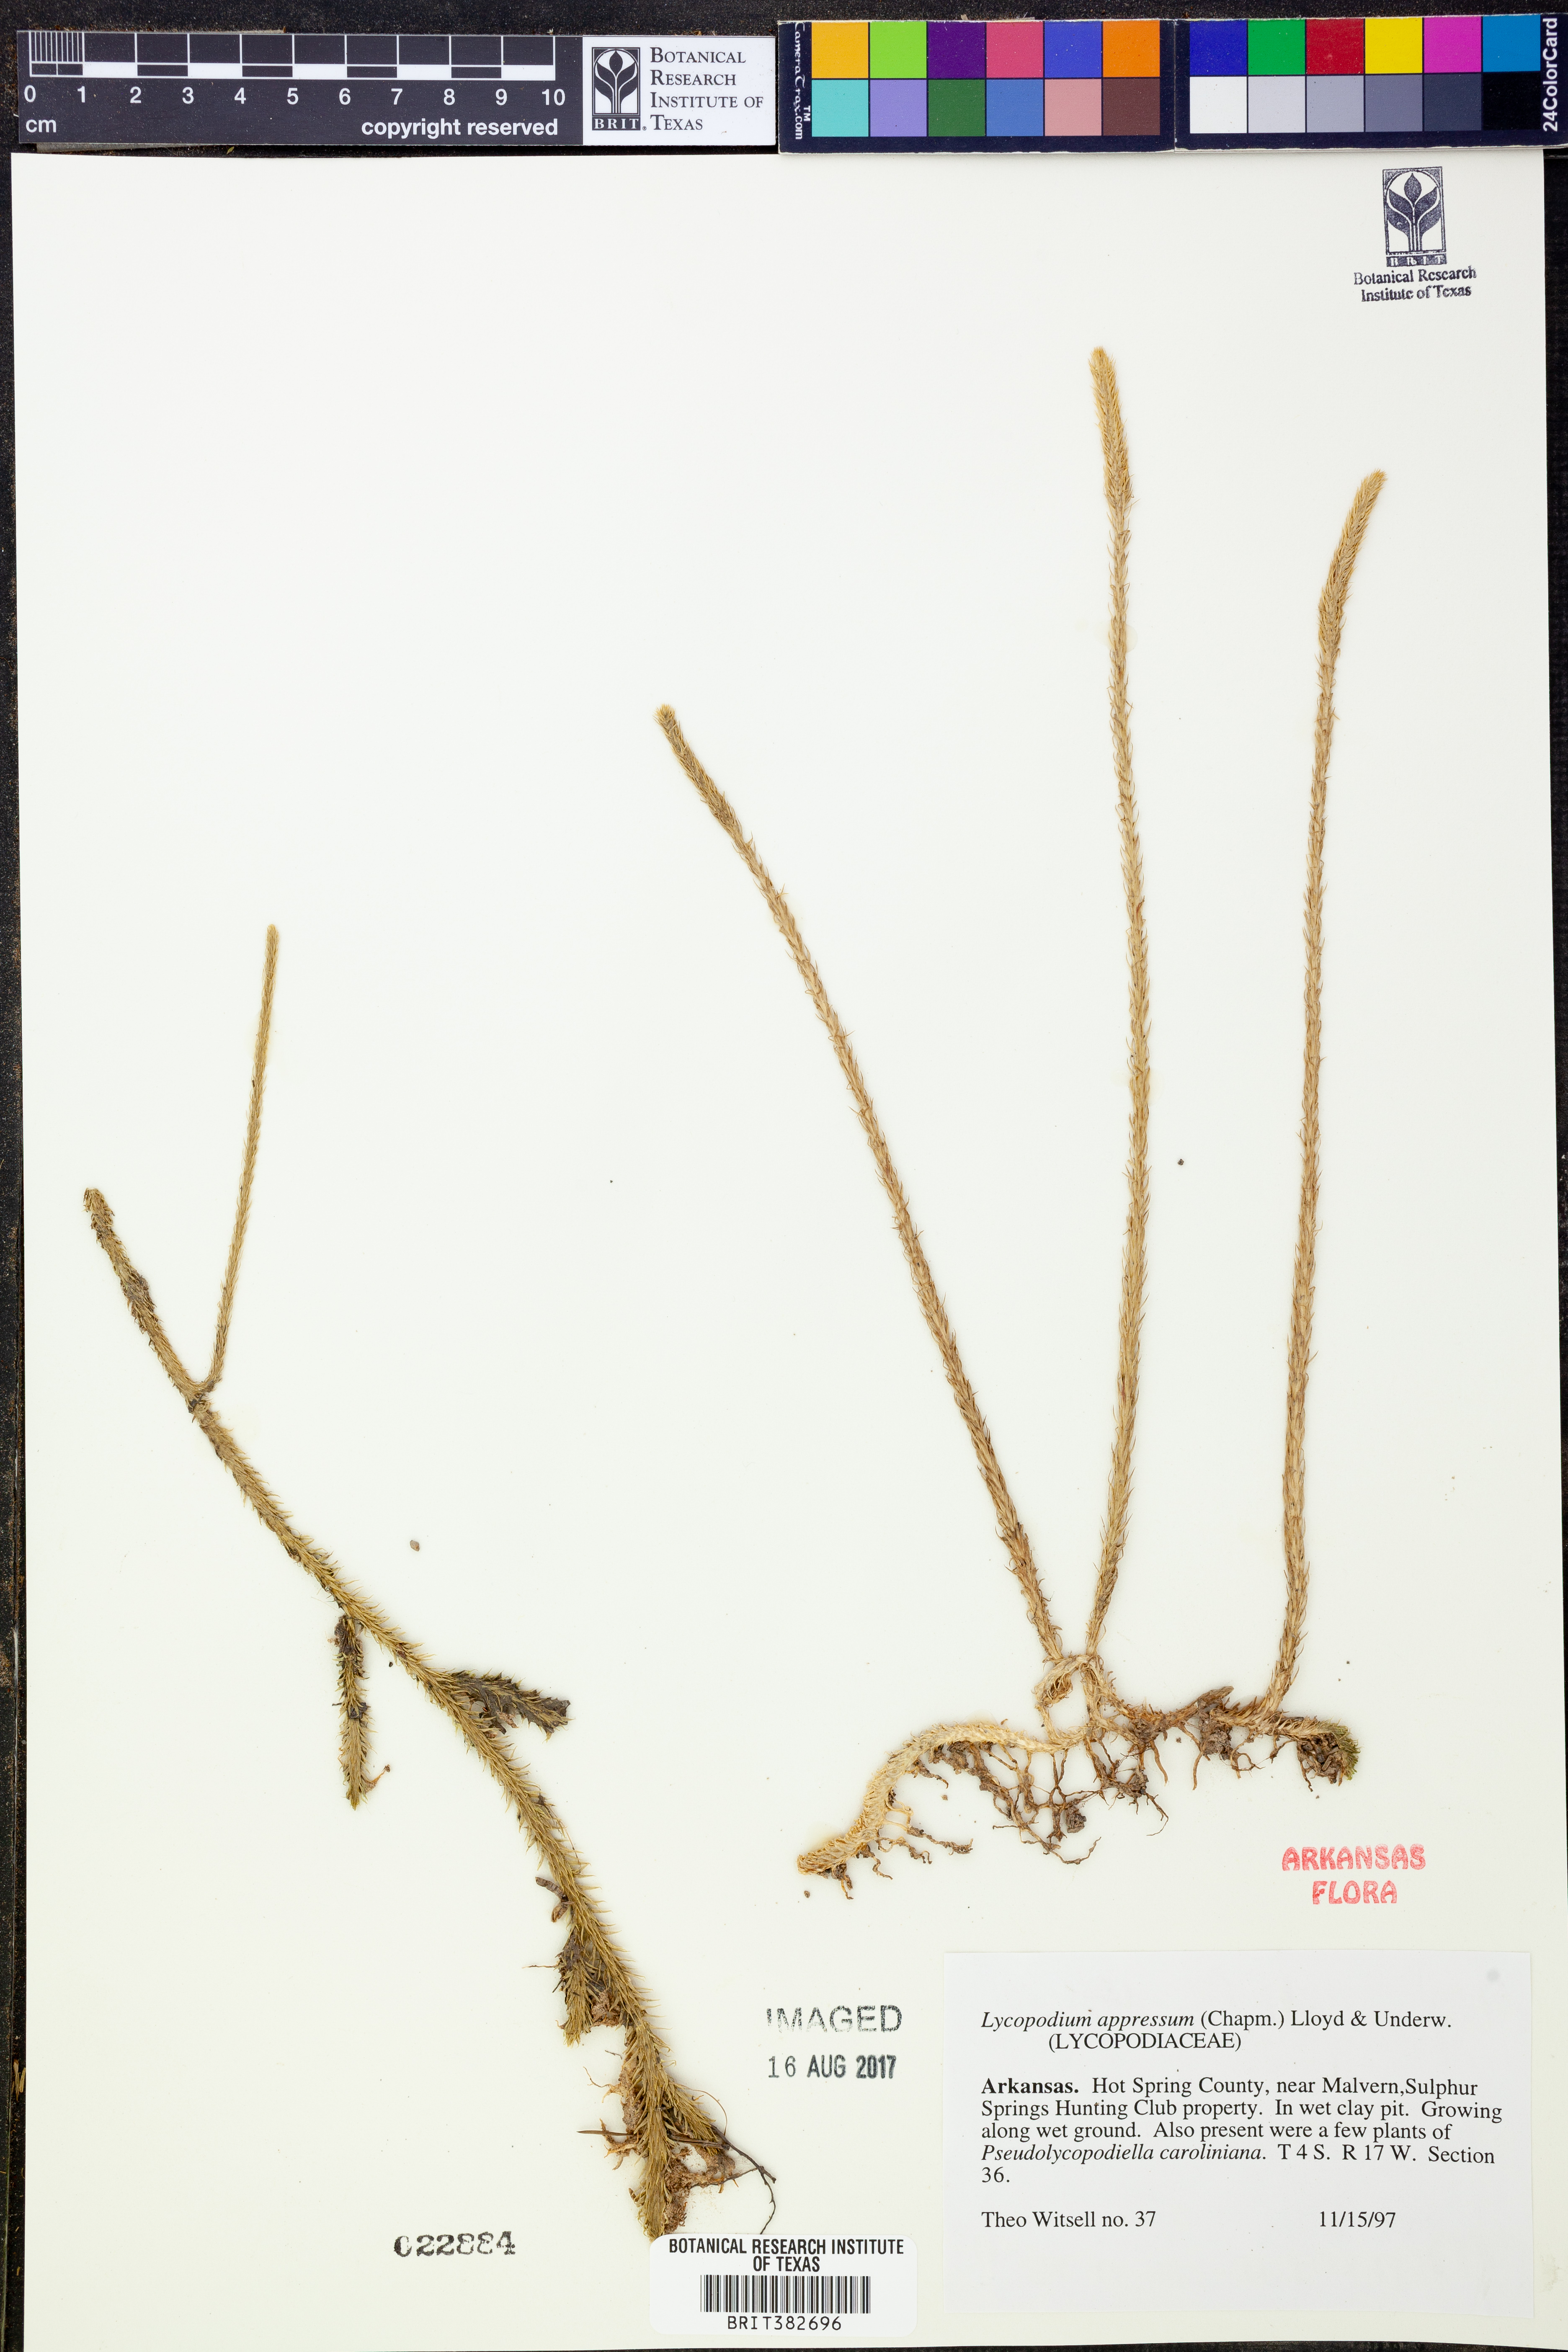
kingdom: Plantae
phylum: Tracheophyta
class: Lycopodiopsida
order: Lycopodiales
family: Lycopodiaceae
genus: Lycopodiella
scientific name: Lycopodiella appressa
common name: Appressed bog clubmoss
